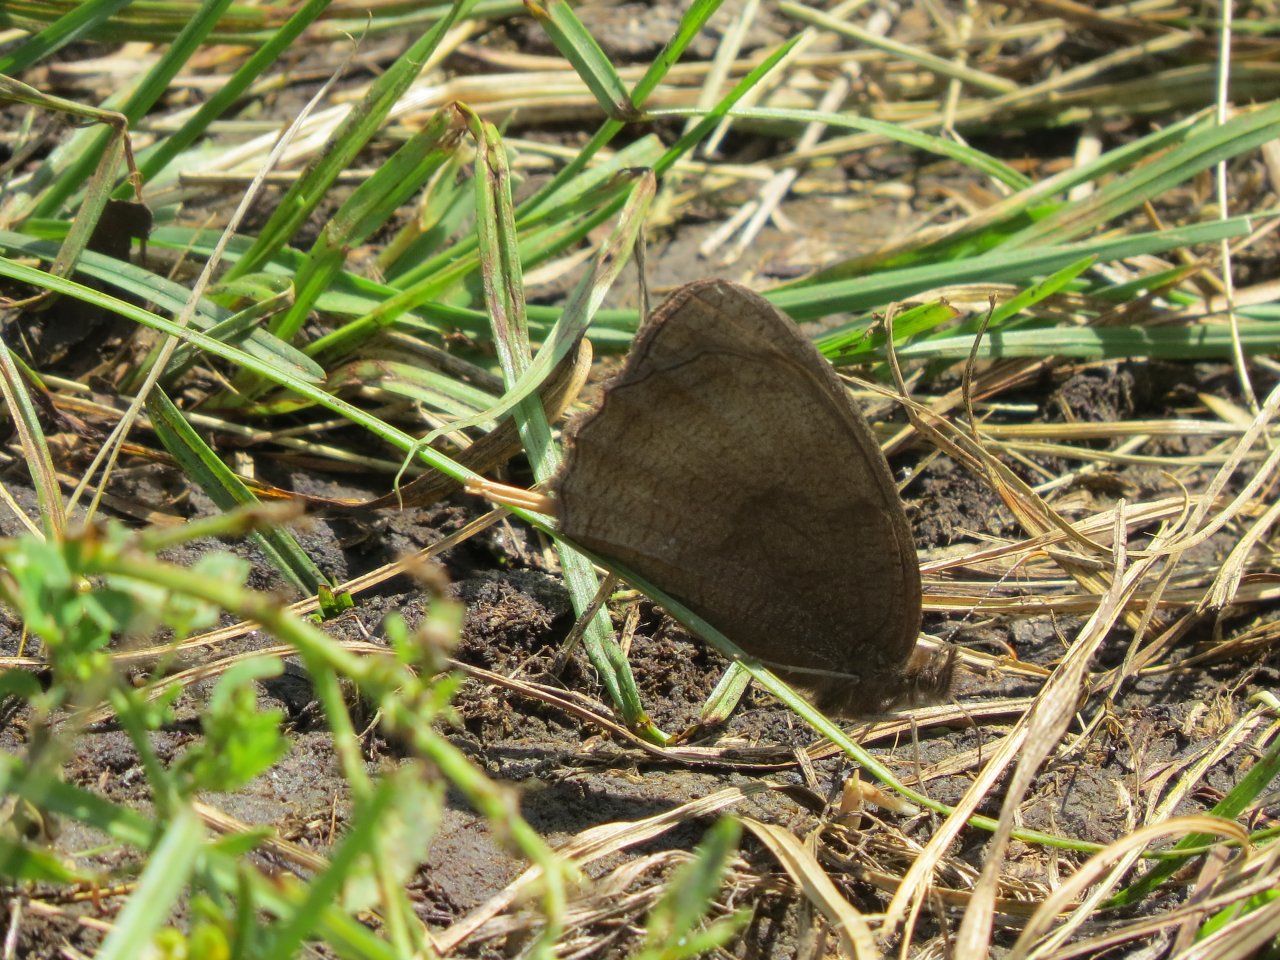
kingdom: Animalia
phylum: Arthropoda
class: Insecta
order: Lepidoptera
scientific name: Lepidoptera
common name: Butterflies
